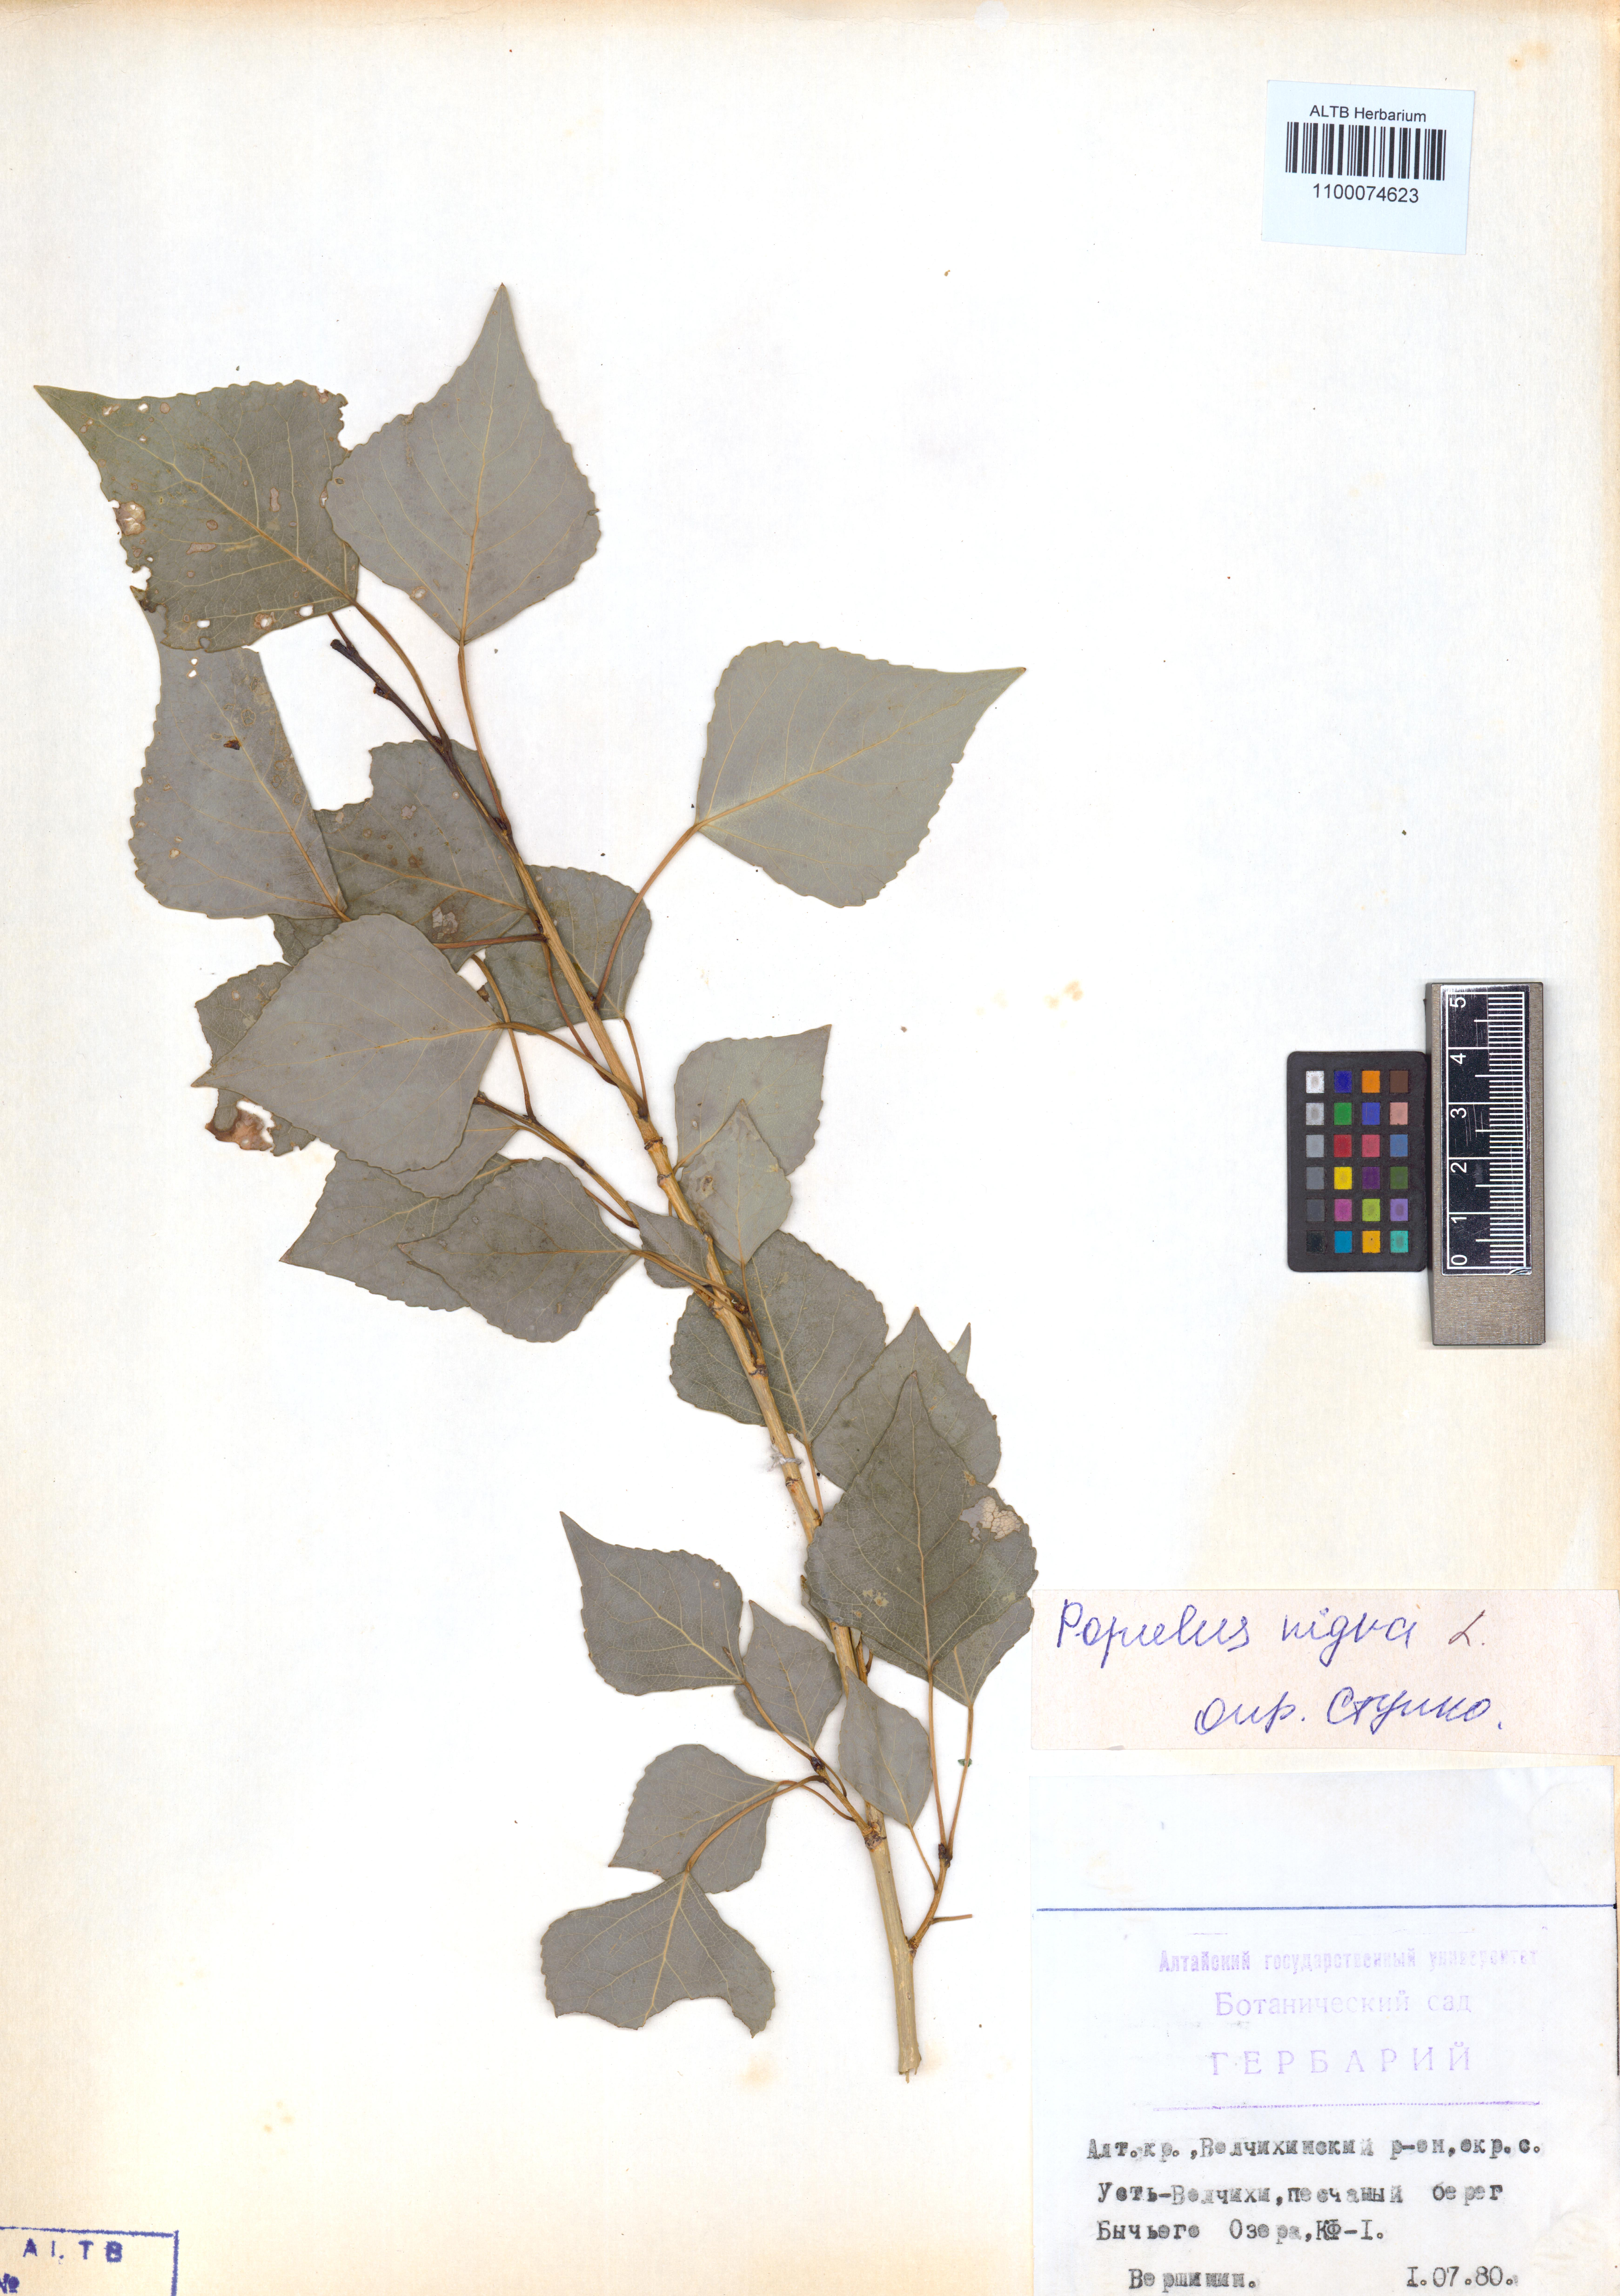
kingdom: Plantae
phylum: Tracheophyta
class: Magnoliopsida
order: Malpighiales
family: Salicaceae
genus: Populus
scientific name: Populus nigra
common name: Black poplar
